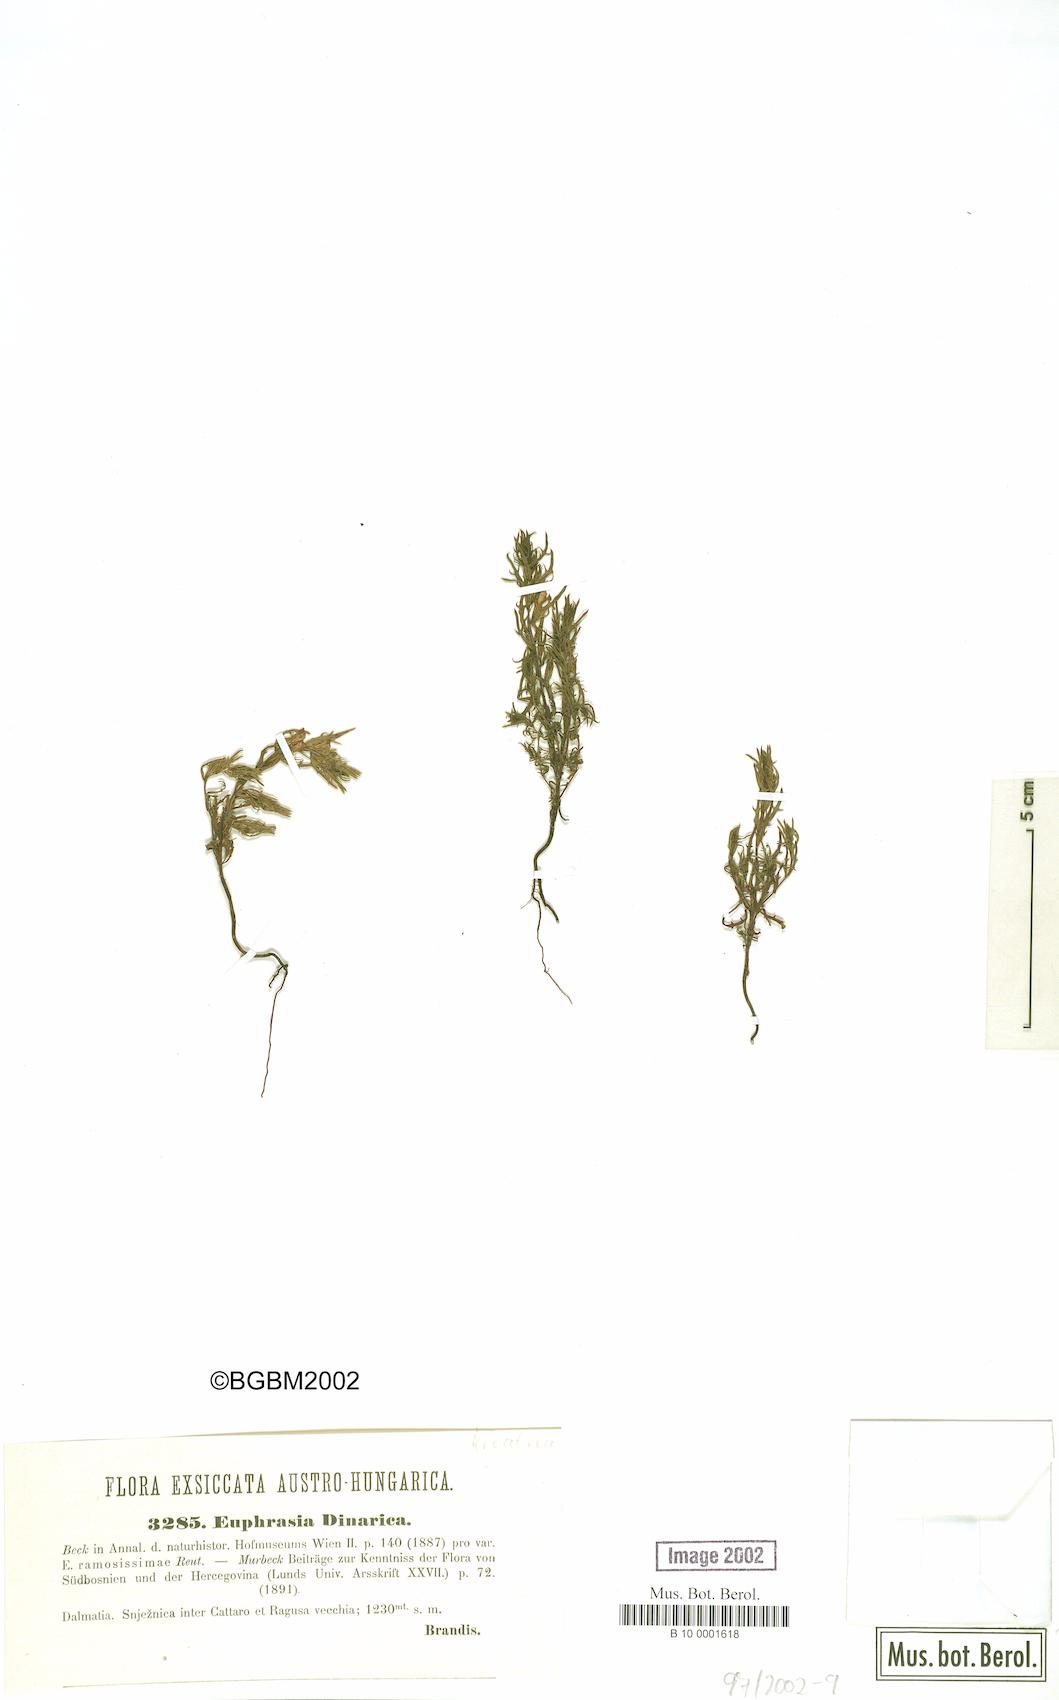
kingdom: Plantae
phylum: Tracheophyta
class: Magnoliopsida
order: Lamiales
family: Orobanchaceae
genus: Euphrasia
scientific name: Euphrasia dinarica
